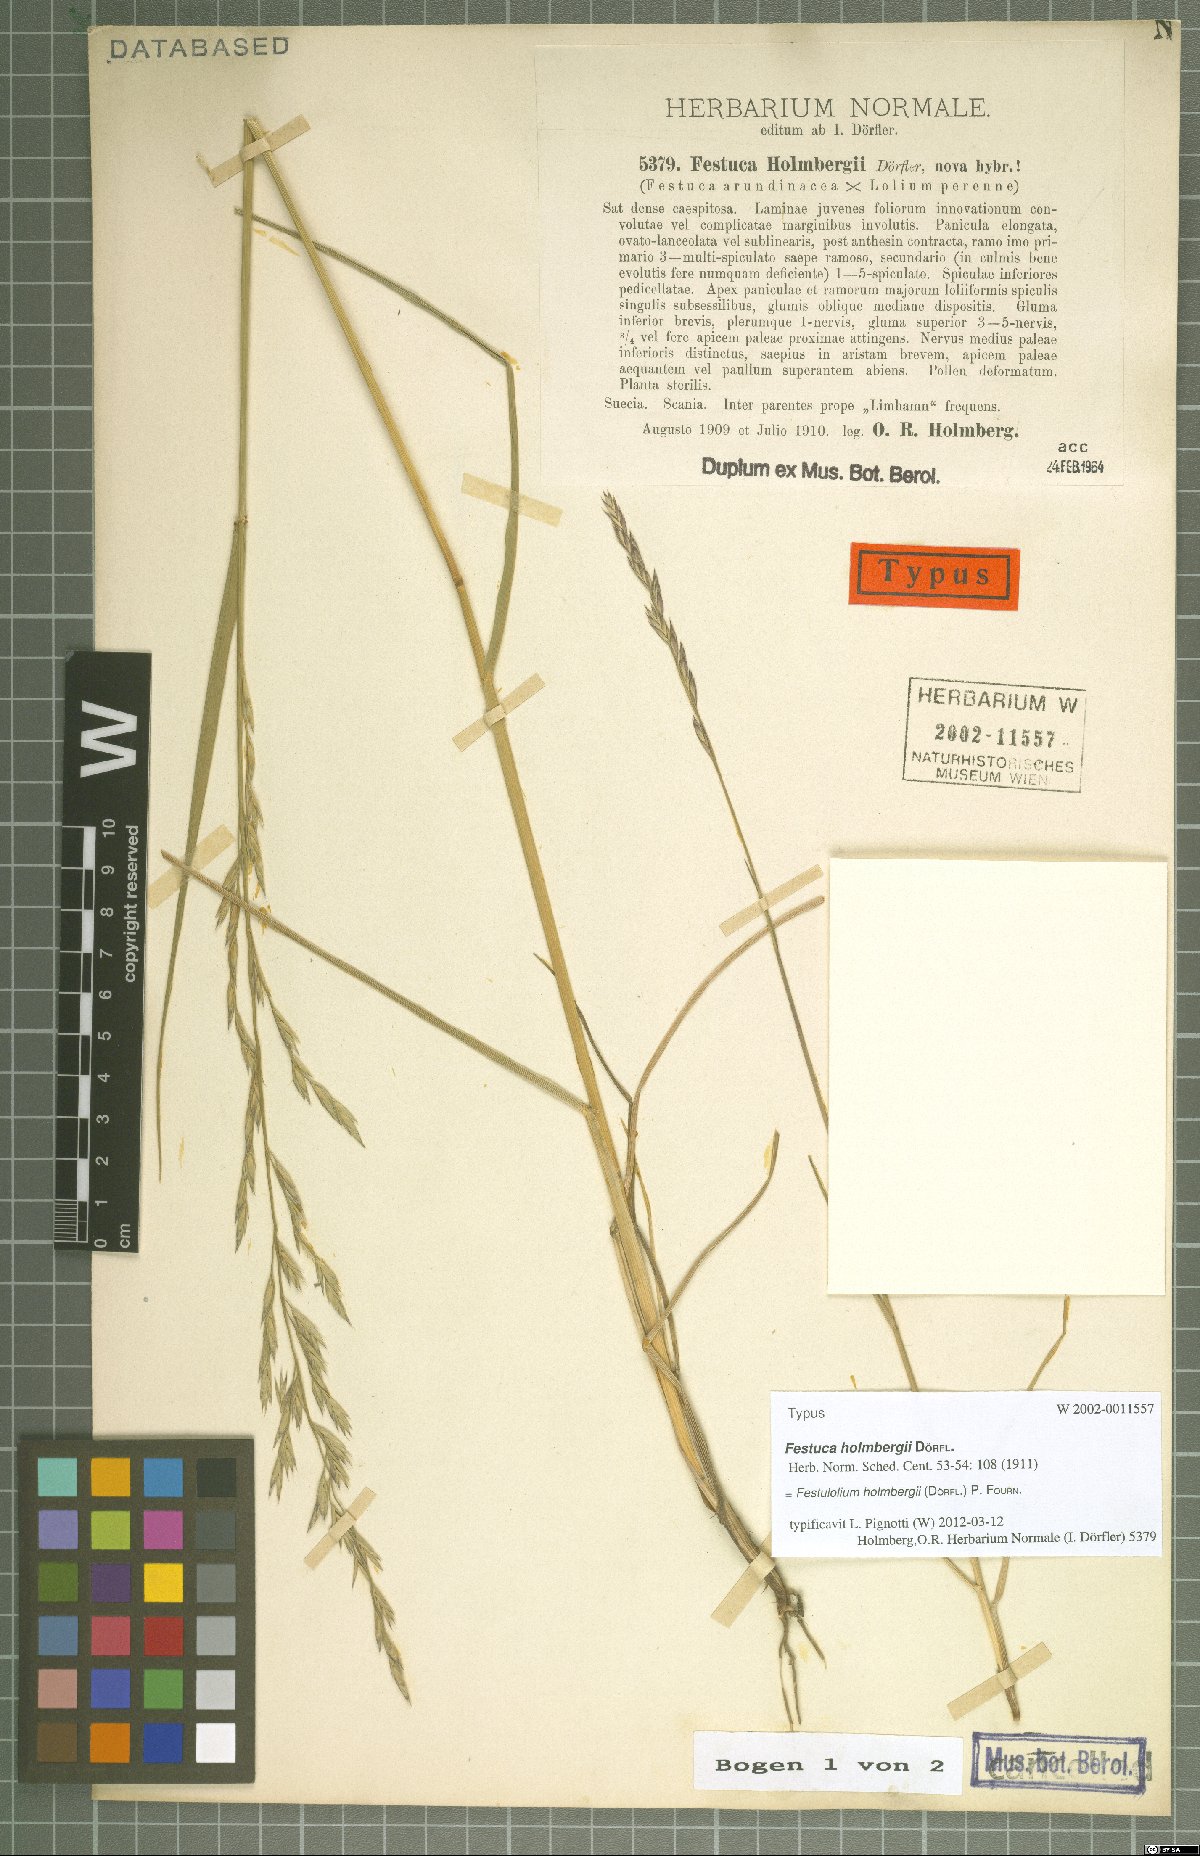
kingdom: Plantae
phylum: Tracheophyta
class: Liliopsida
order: Poales
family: Poaceae
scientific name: Poaceae
